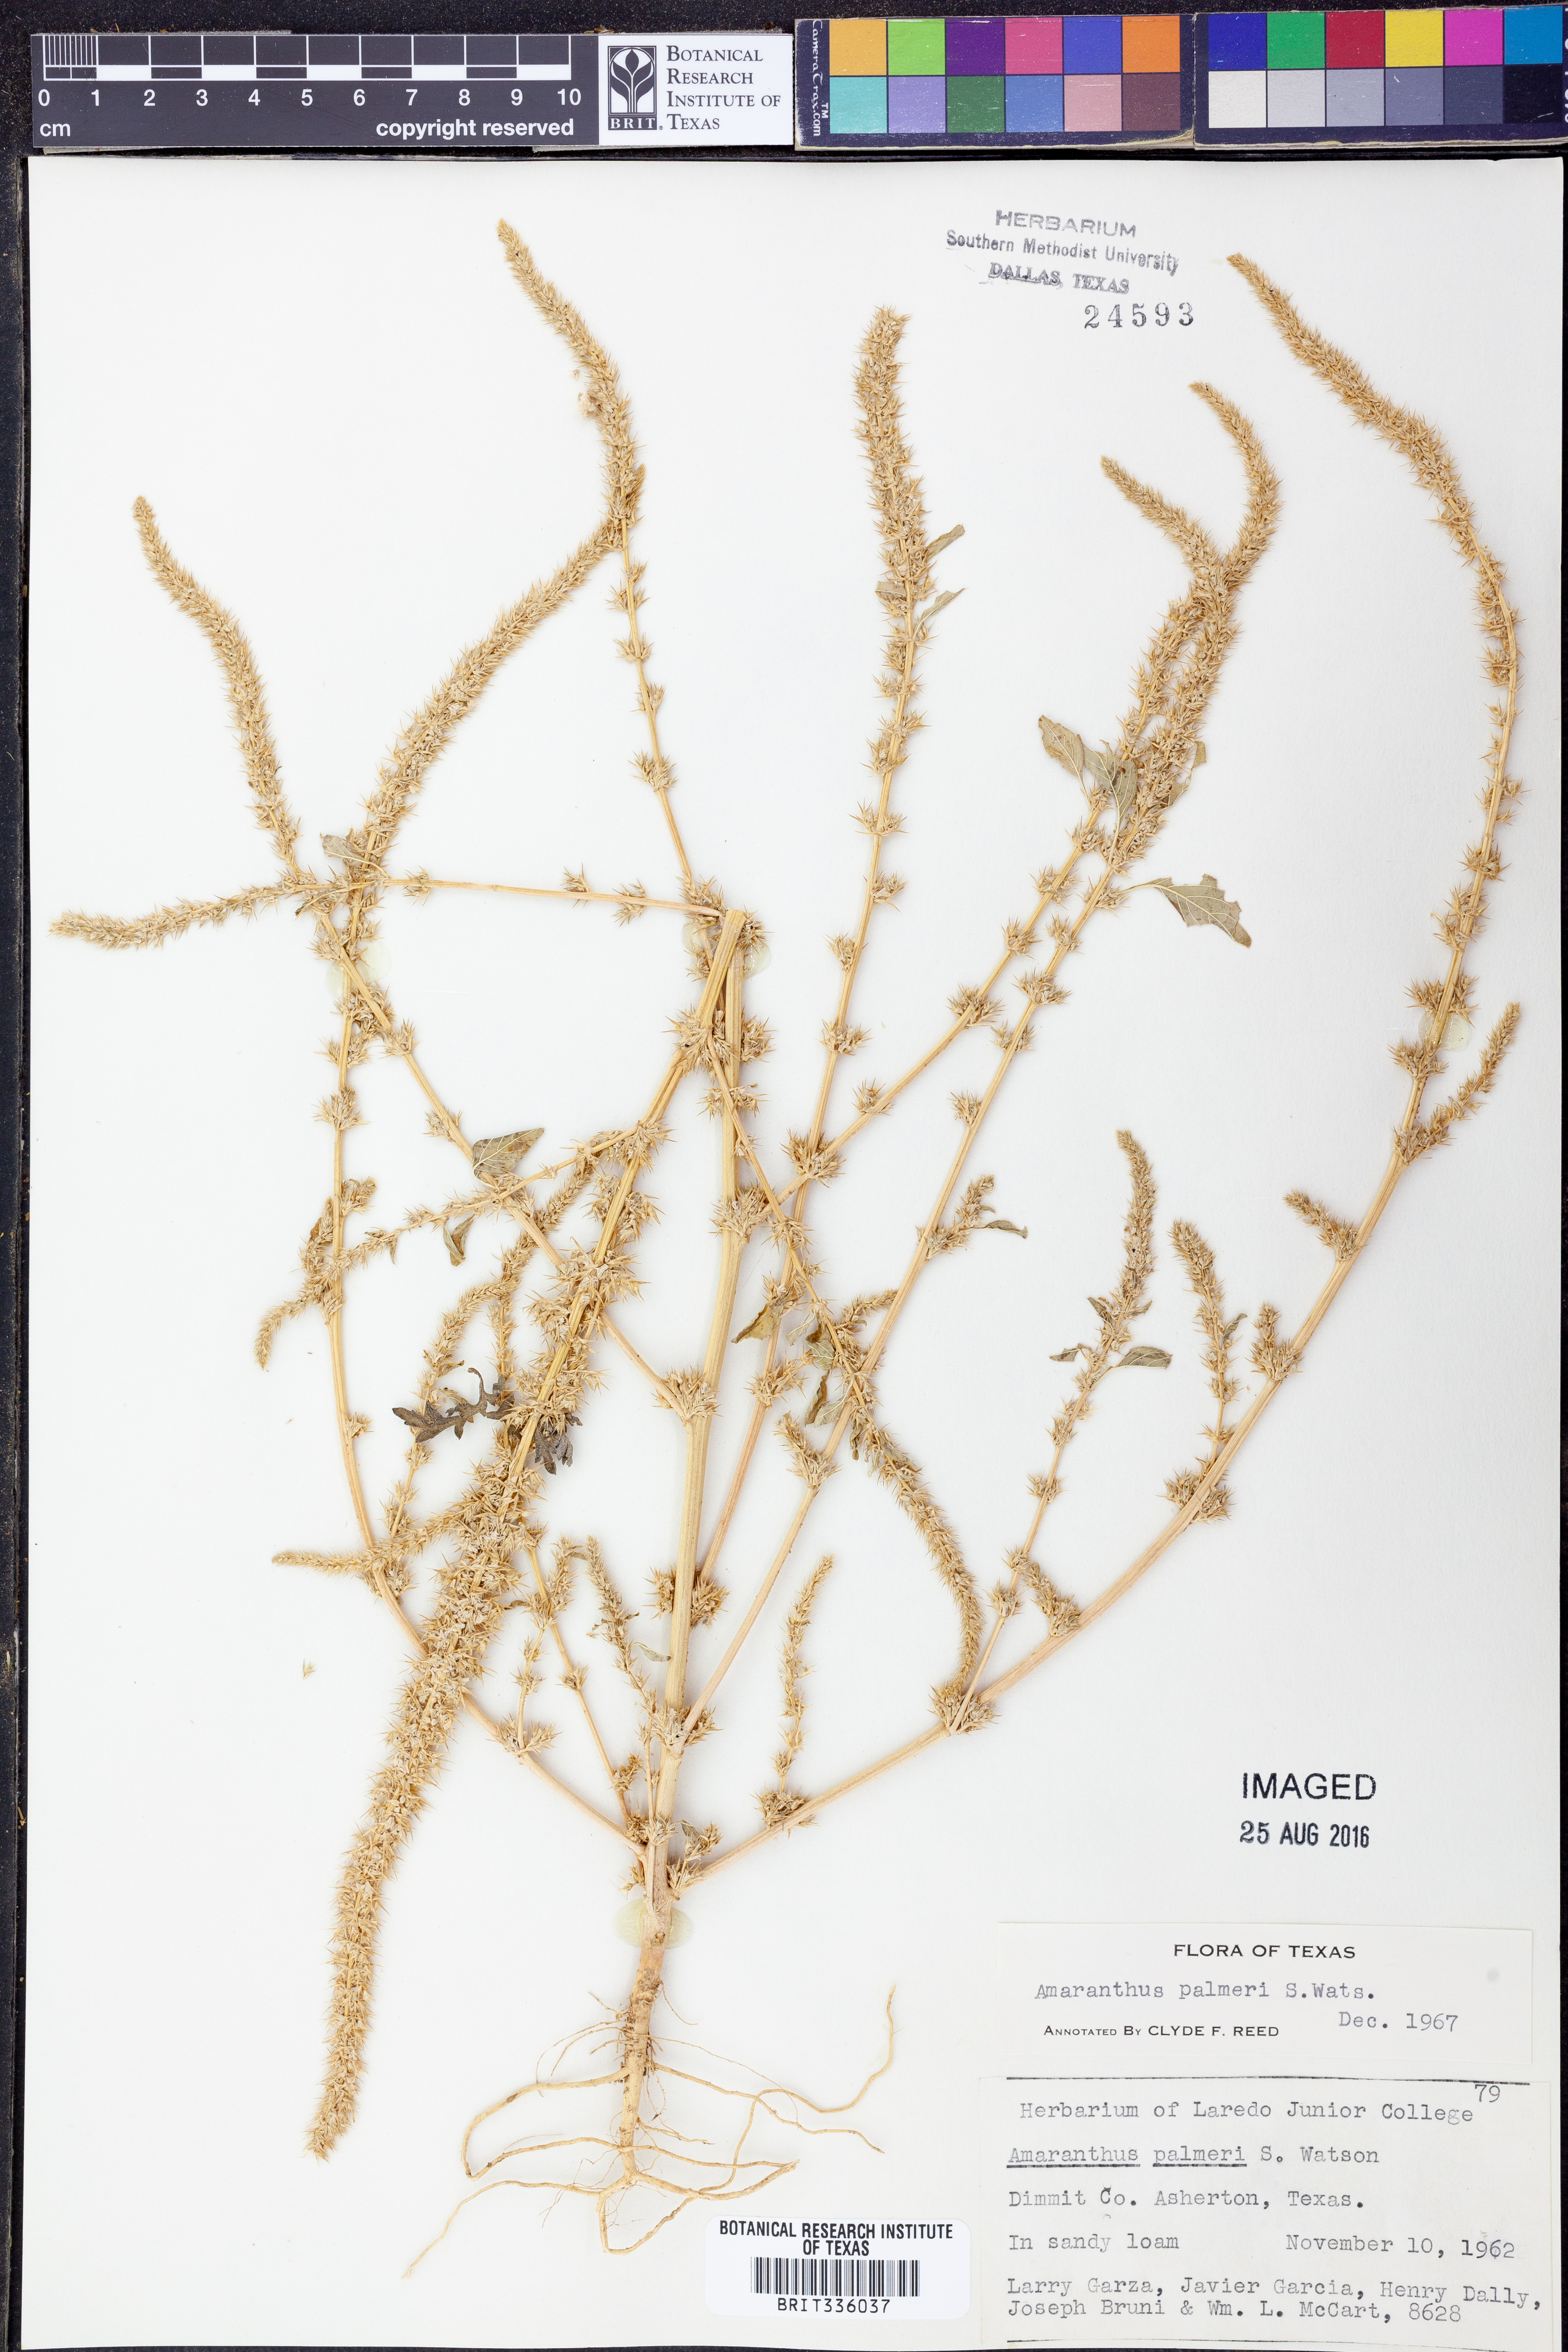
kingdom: Plantae
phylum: Tracheophyta
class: Magnoliopsida
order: Caryophyllales
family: Amaranthaceae
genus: Amaranthus
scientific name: Amaranthus palmeri
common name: Dioecious amaranth
